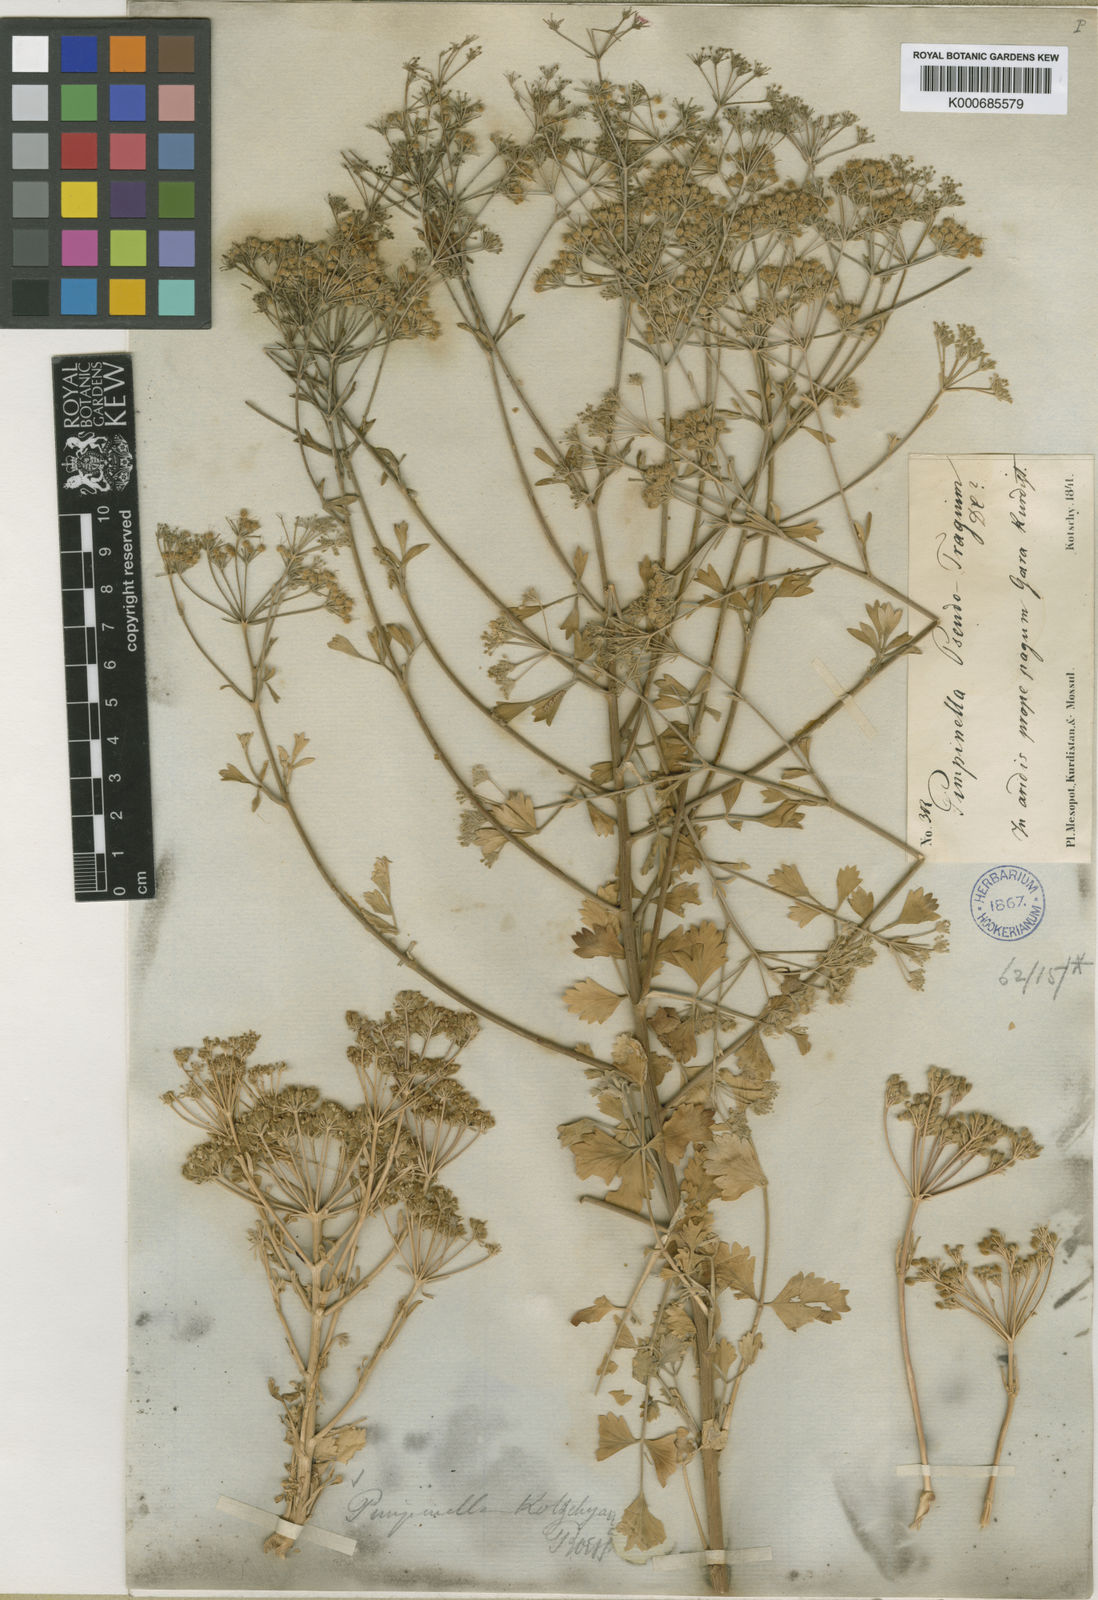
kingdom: Plantae
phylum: Tracheophyta
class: Magnoliopsida
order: Apiales
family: Apiaceae
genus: Pimpinella
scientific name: Pimpinella kotschyana
